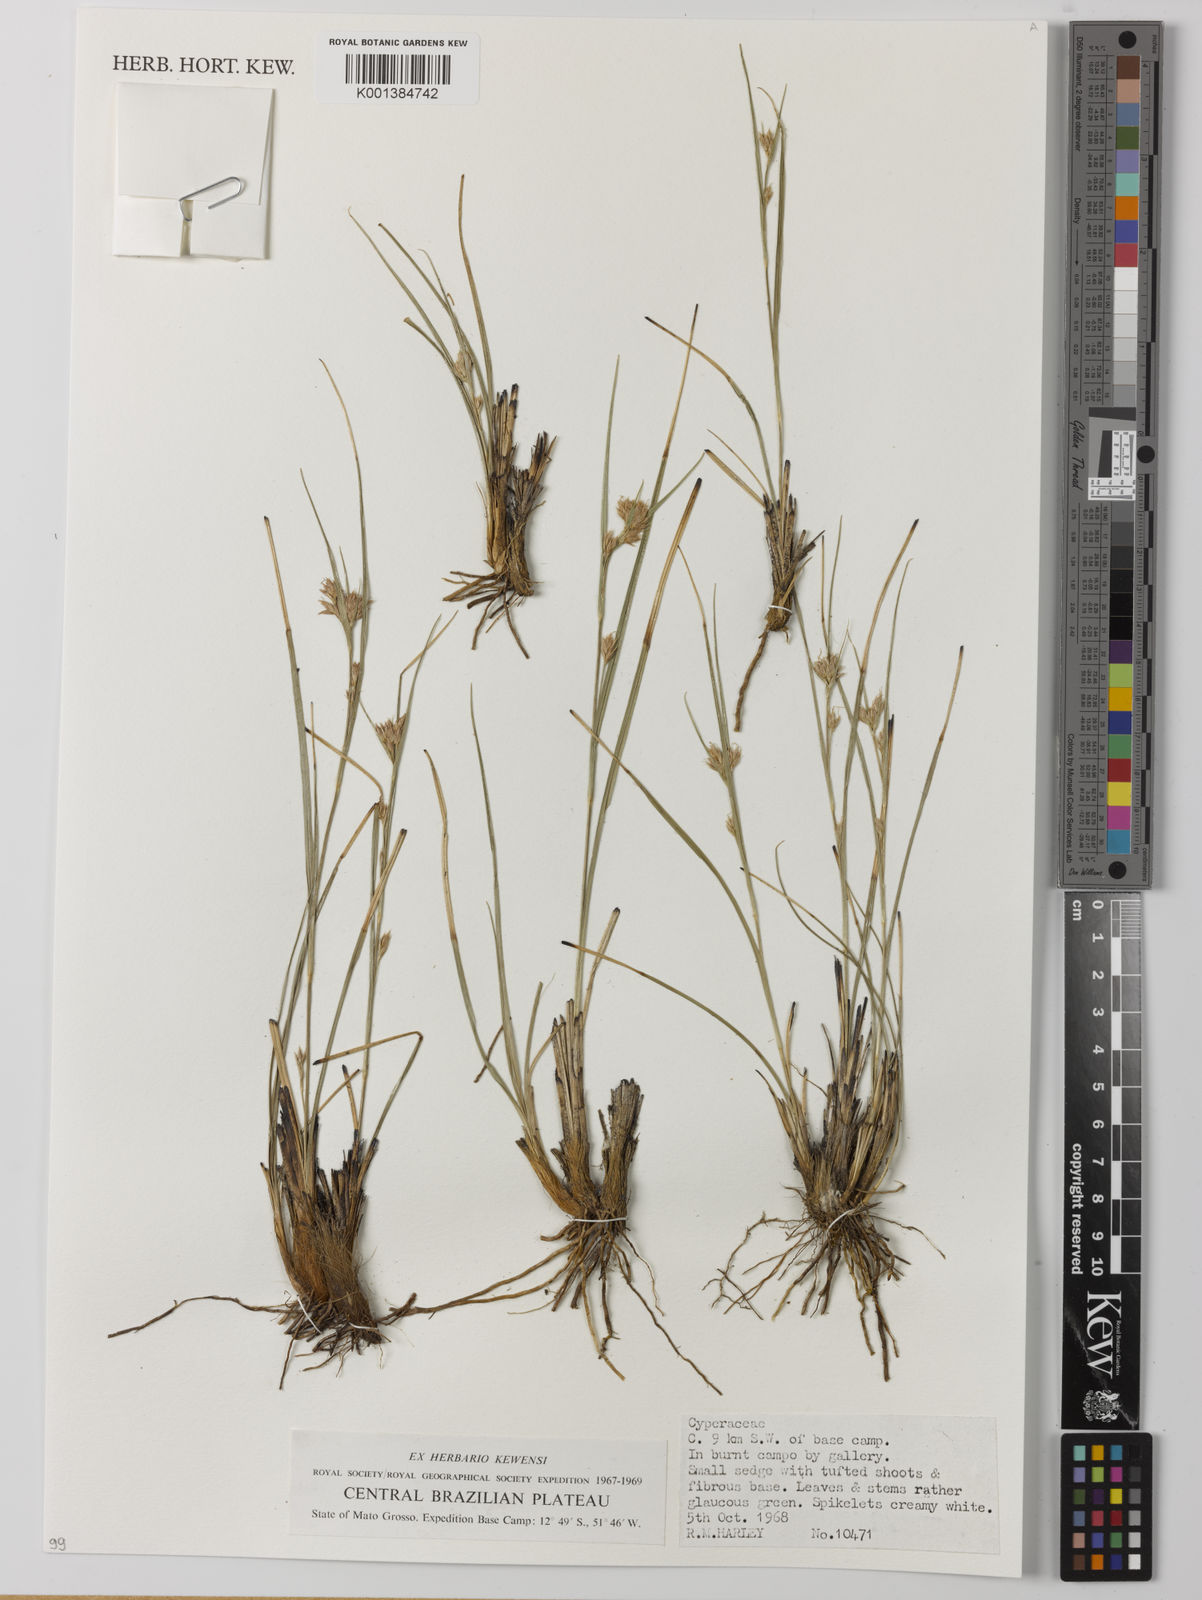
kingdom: Plantae
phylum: Tracheophyta
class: Liliopsida
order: Poales
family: Cyperaceae
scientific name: Cyperaceae
